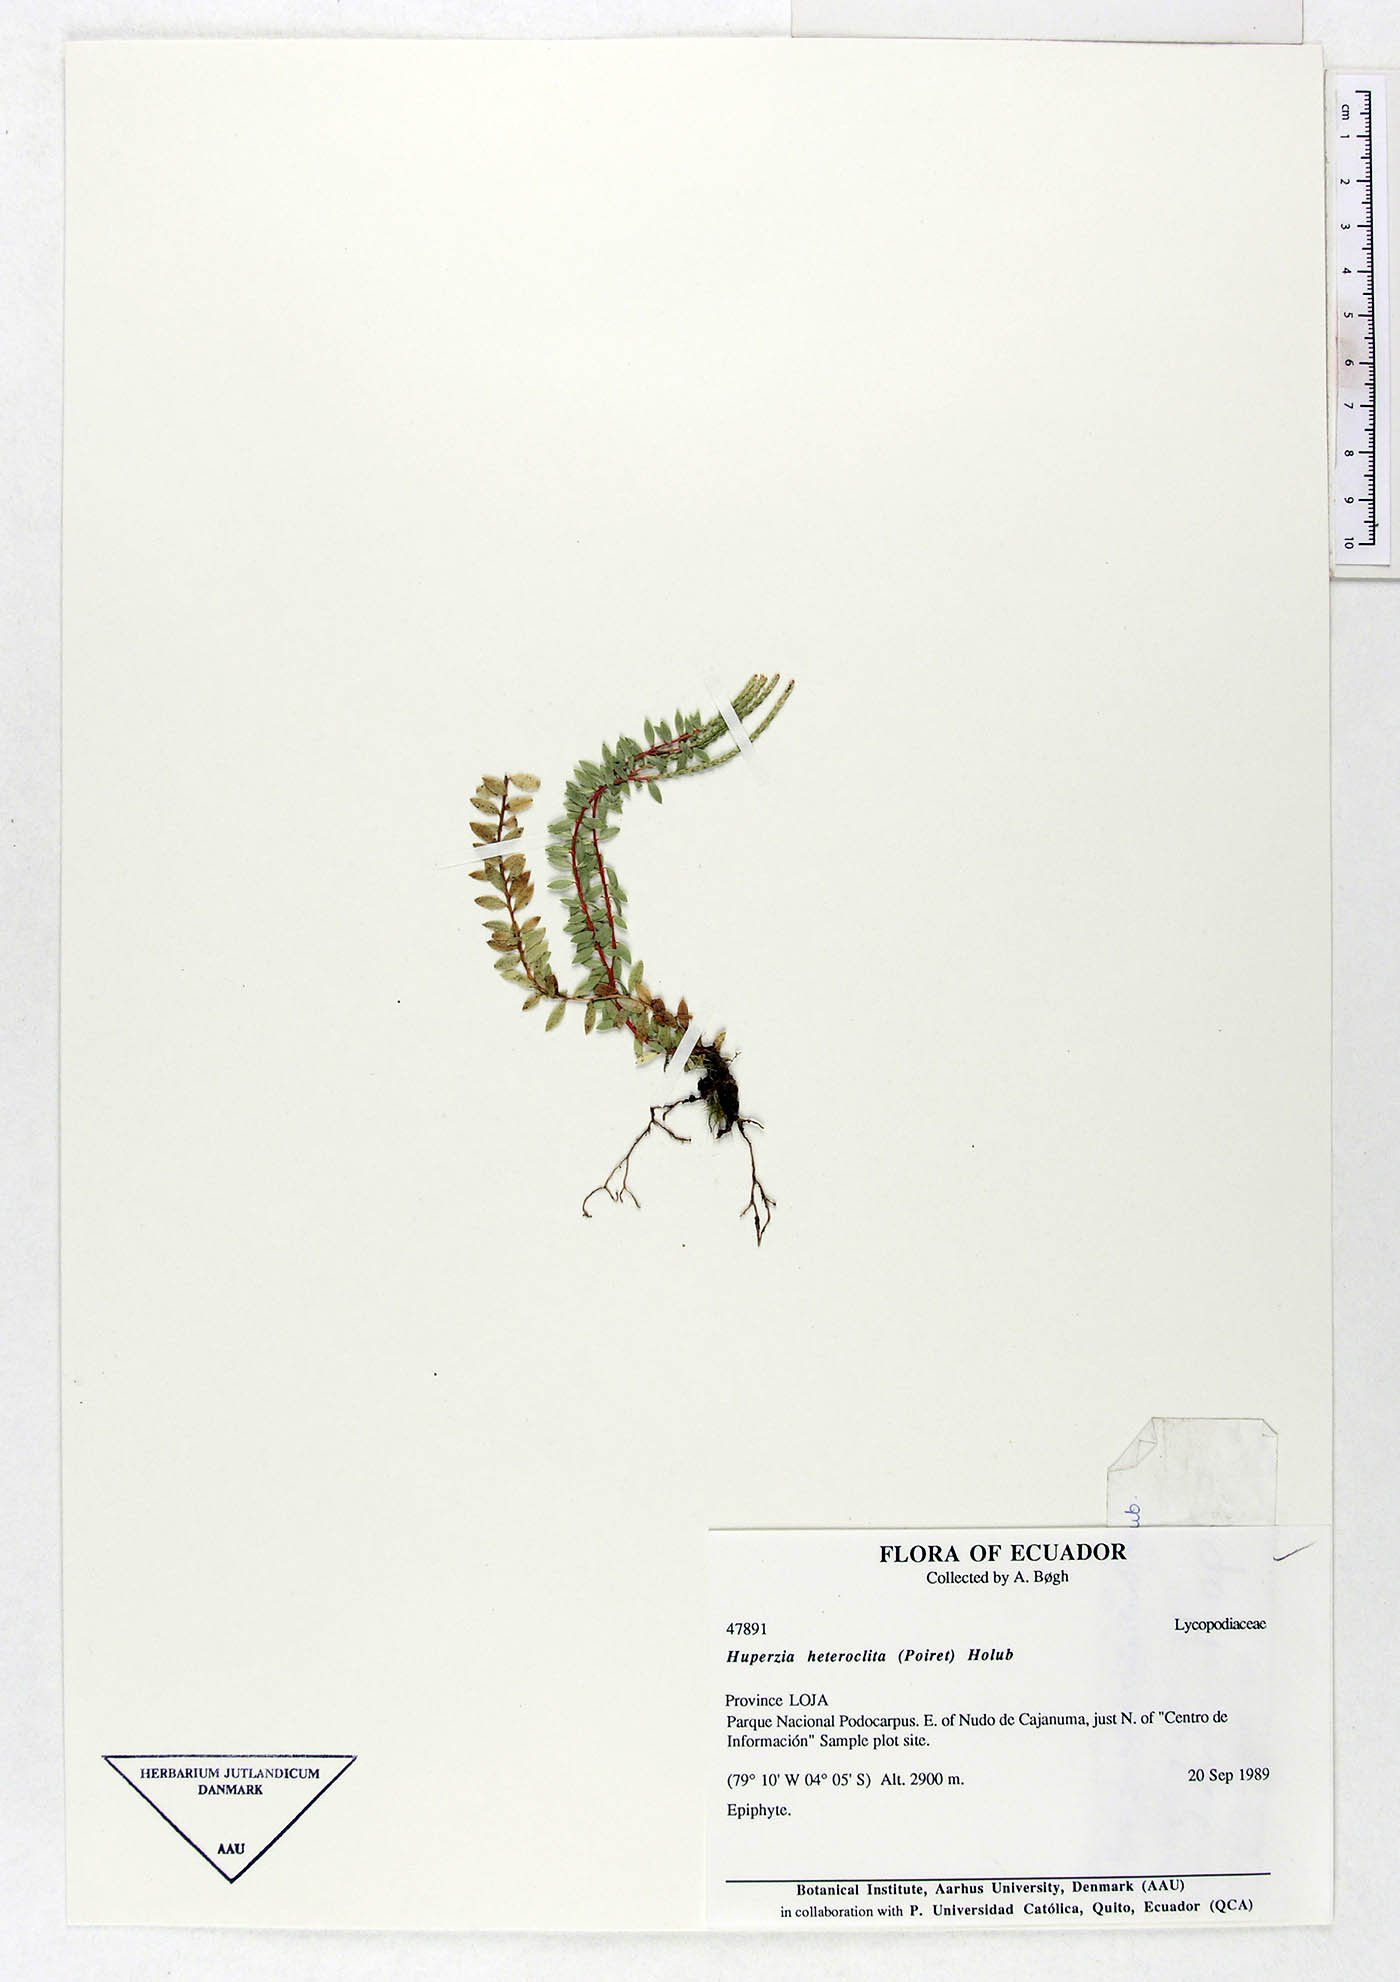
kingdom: Plantae
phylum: Tracheophyta
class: Lycopodiopsida
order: Lycopodiales
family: Lycopodiaceae
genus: Phlegmariurus
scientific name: Phlegmariurus heteroclitus
